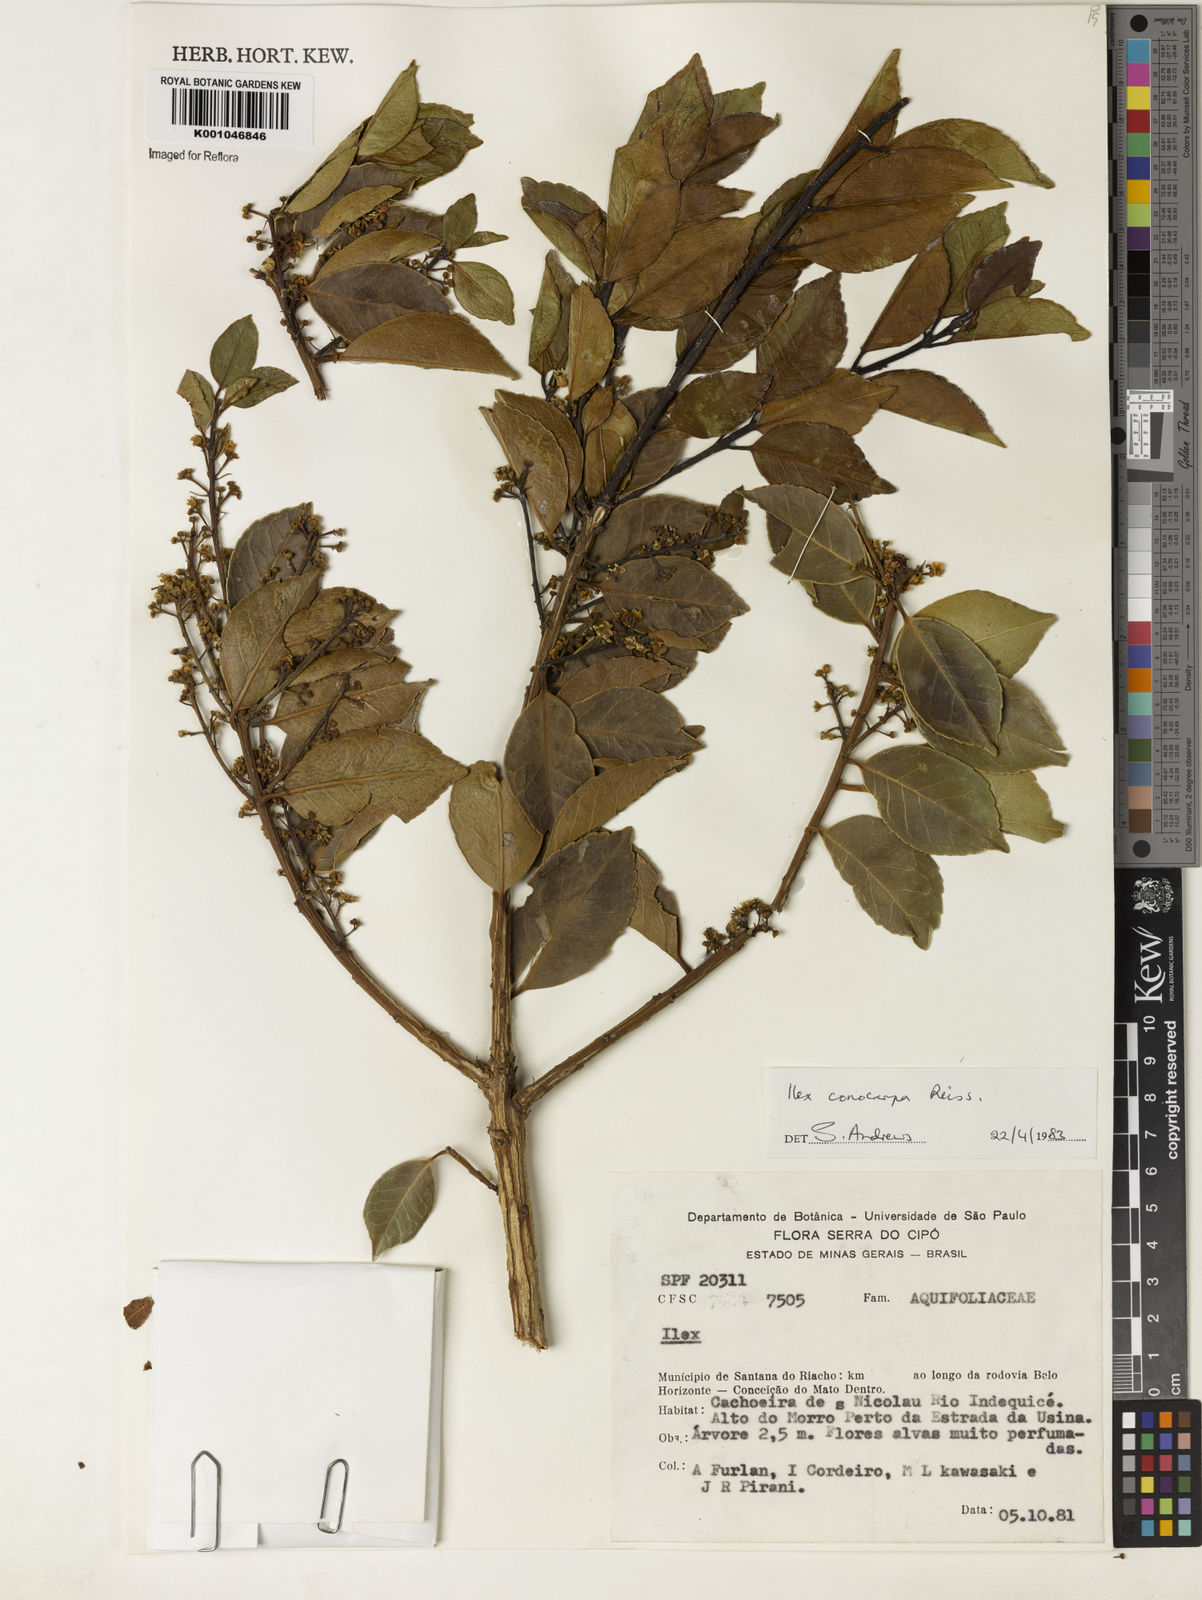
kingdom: Plantae
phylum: Tracheophyta
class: Magnoliopsida
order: Aquifoliales
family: Aquifoliaceae
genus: Ilex
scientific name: Ilex conocarpa
